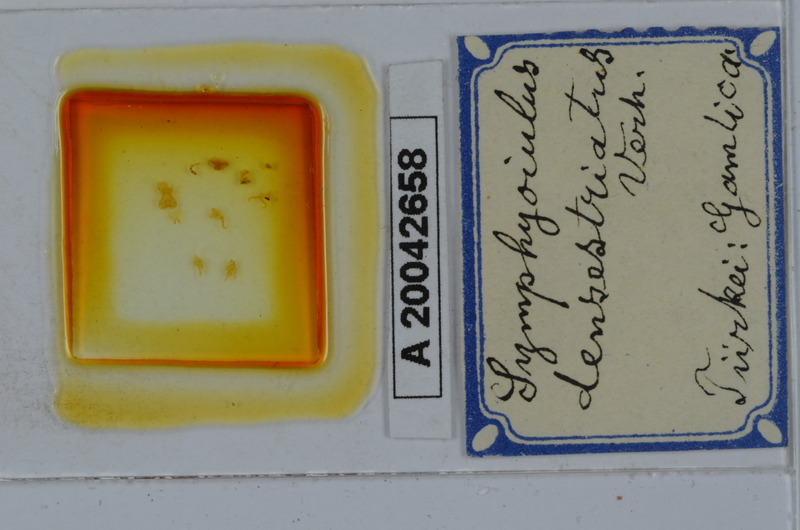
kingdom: Animalia
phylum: Arthropoda
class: Diplopoda
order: Julida
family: Julidae
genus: Symphyoiulus
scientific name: Symphyoiulus impartitus
